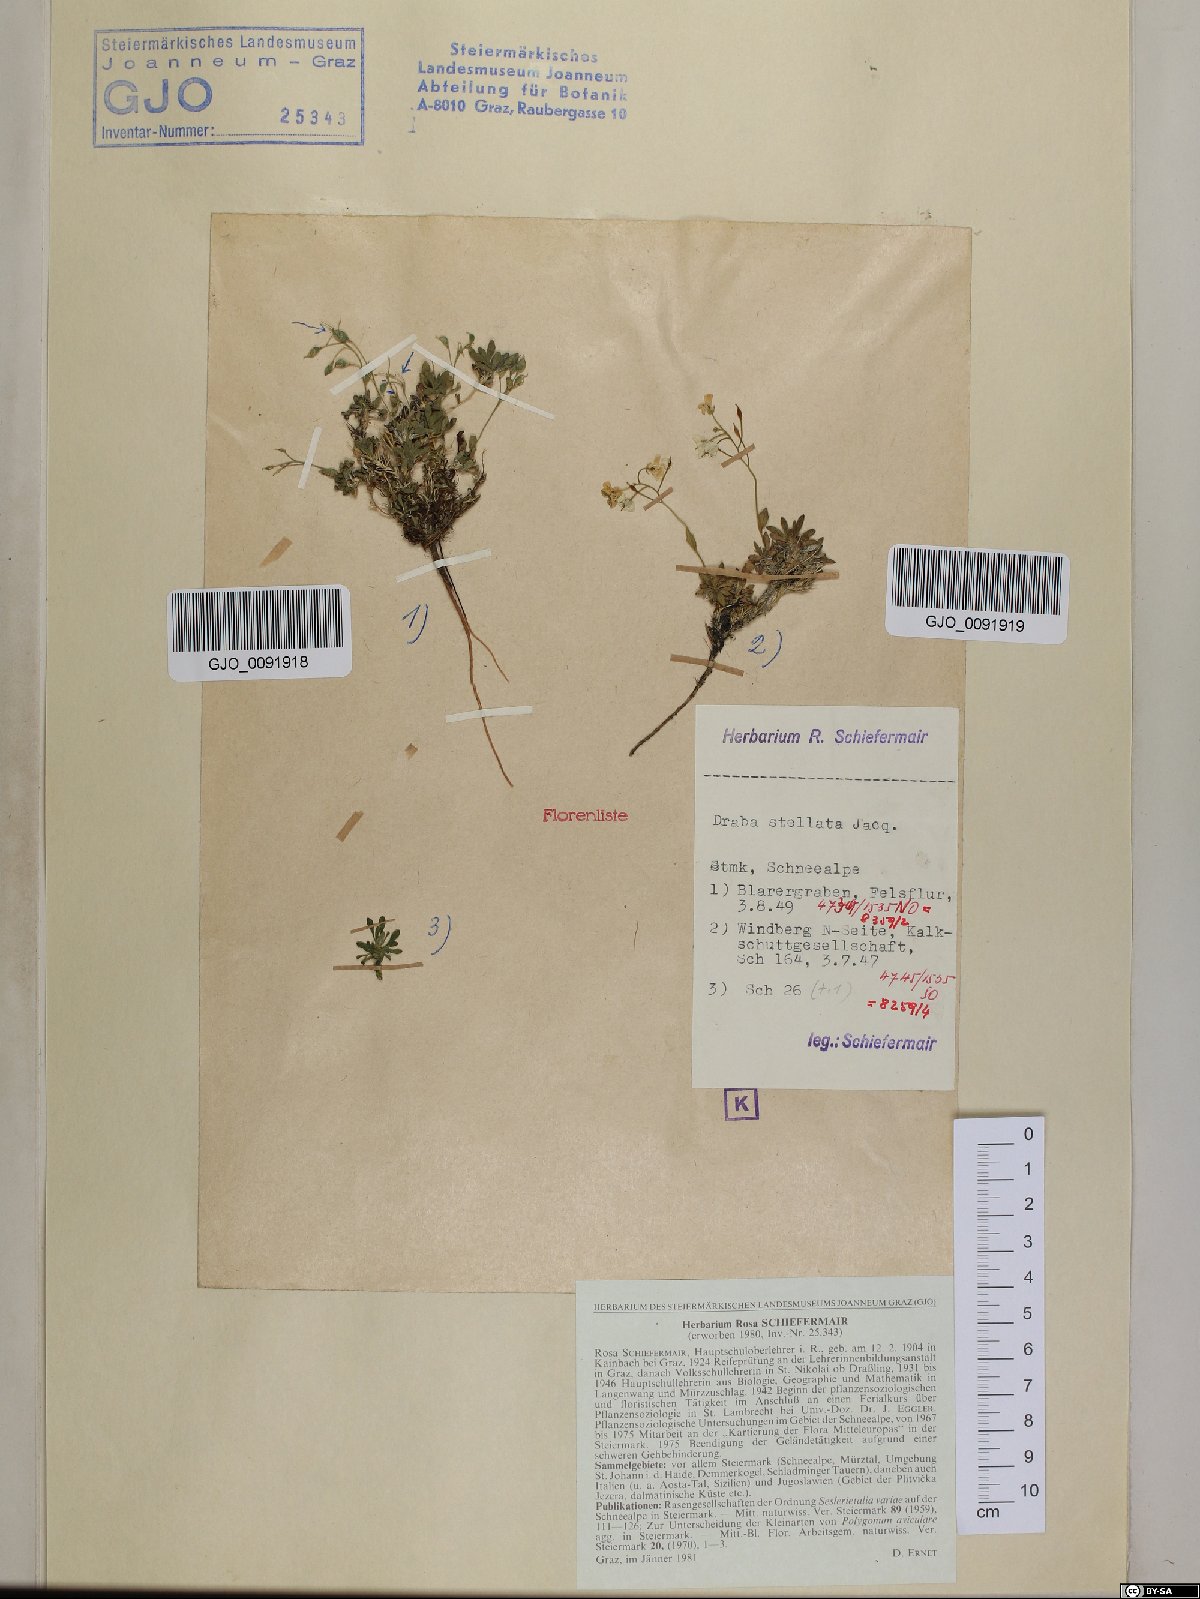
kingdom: Plantae
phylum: Tracheophyta
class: Magnoliopsida
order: Brassicales
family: Brassicaceae
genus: Draba
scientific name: Draba stellata
